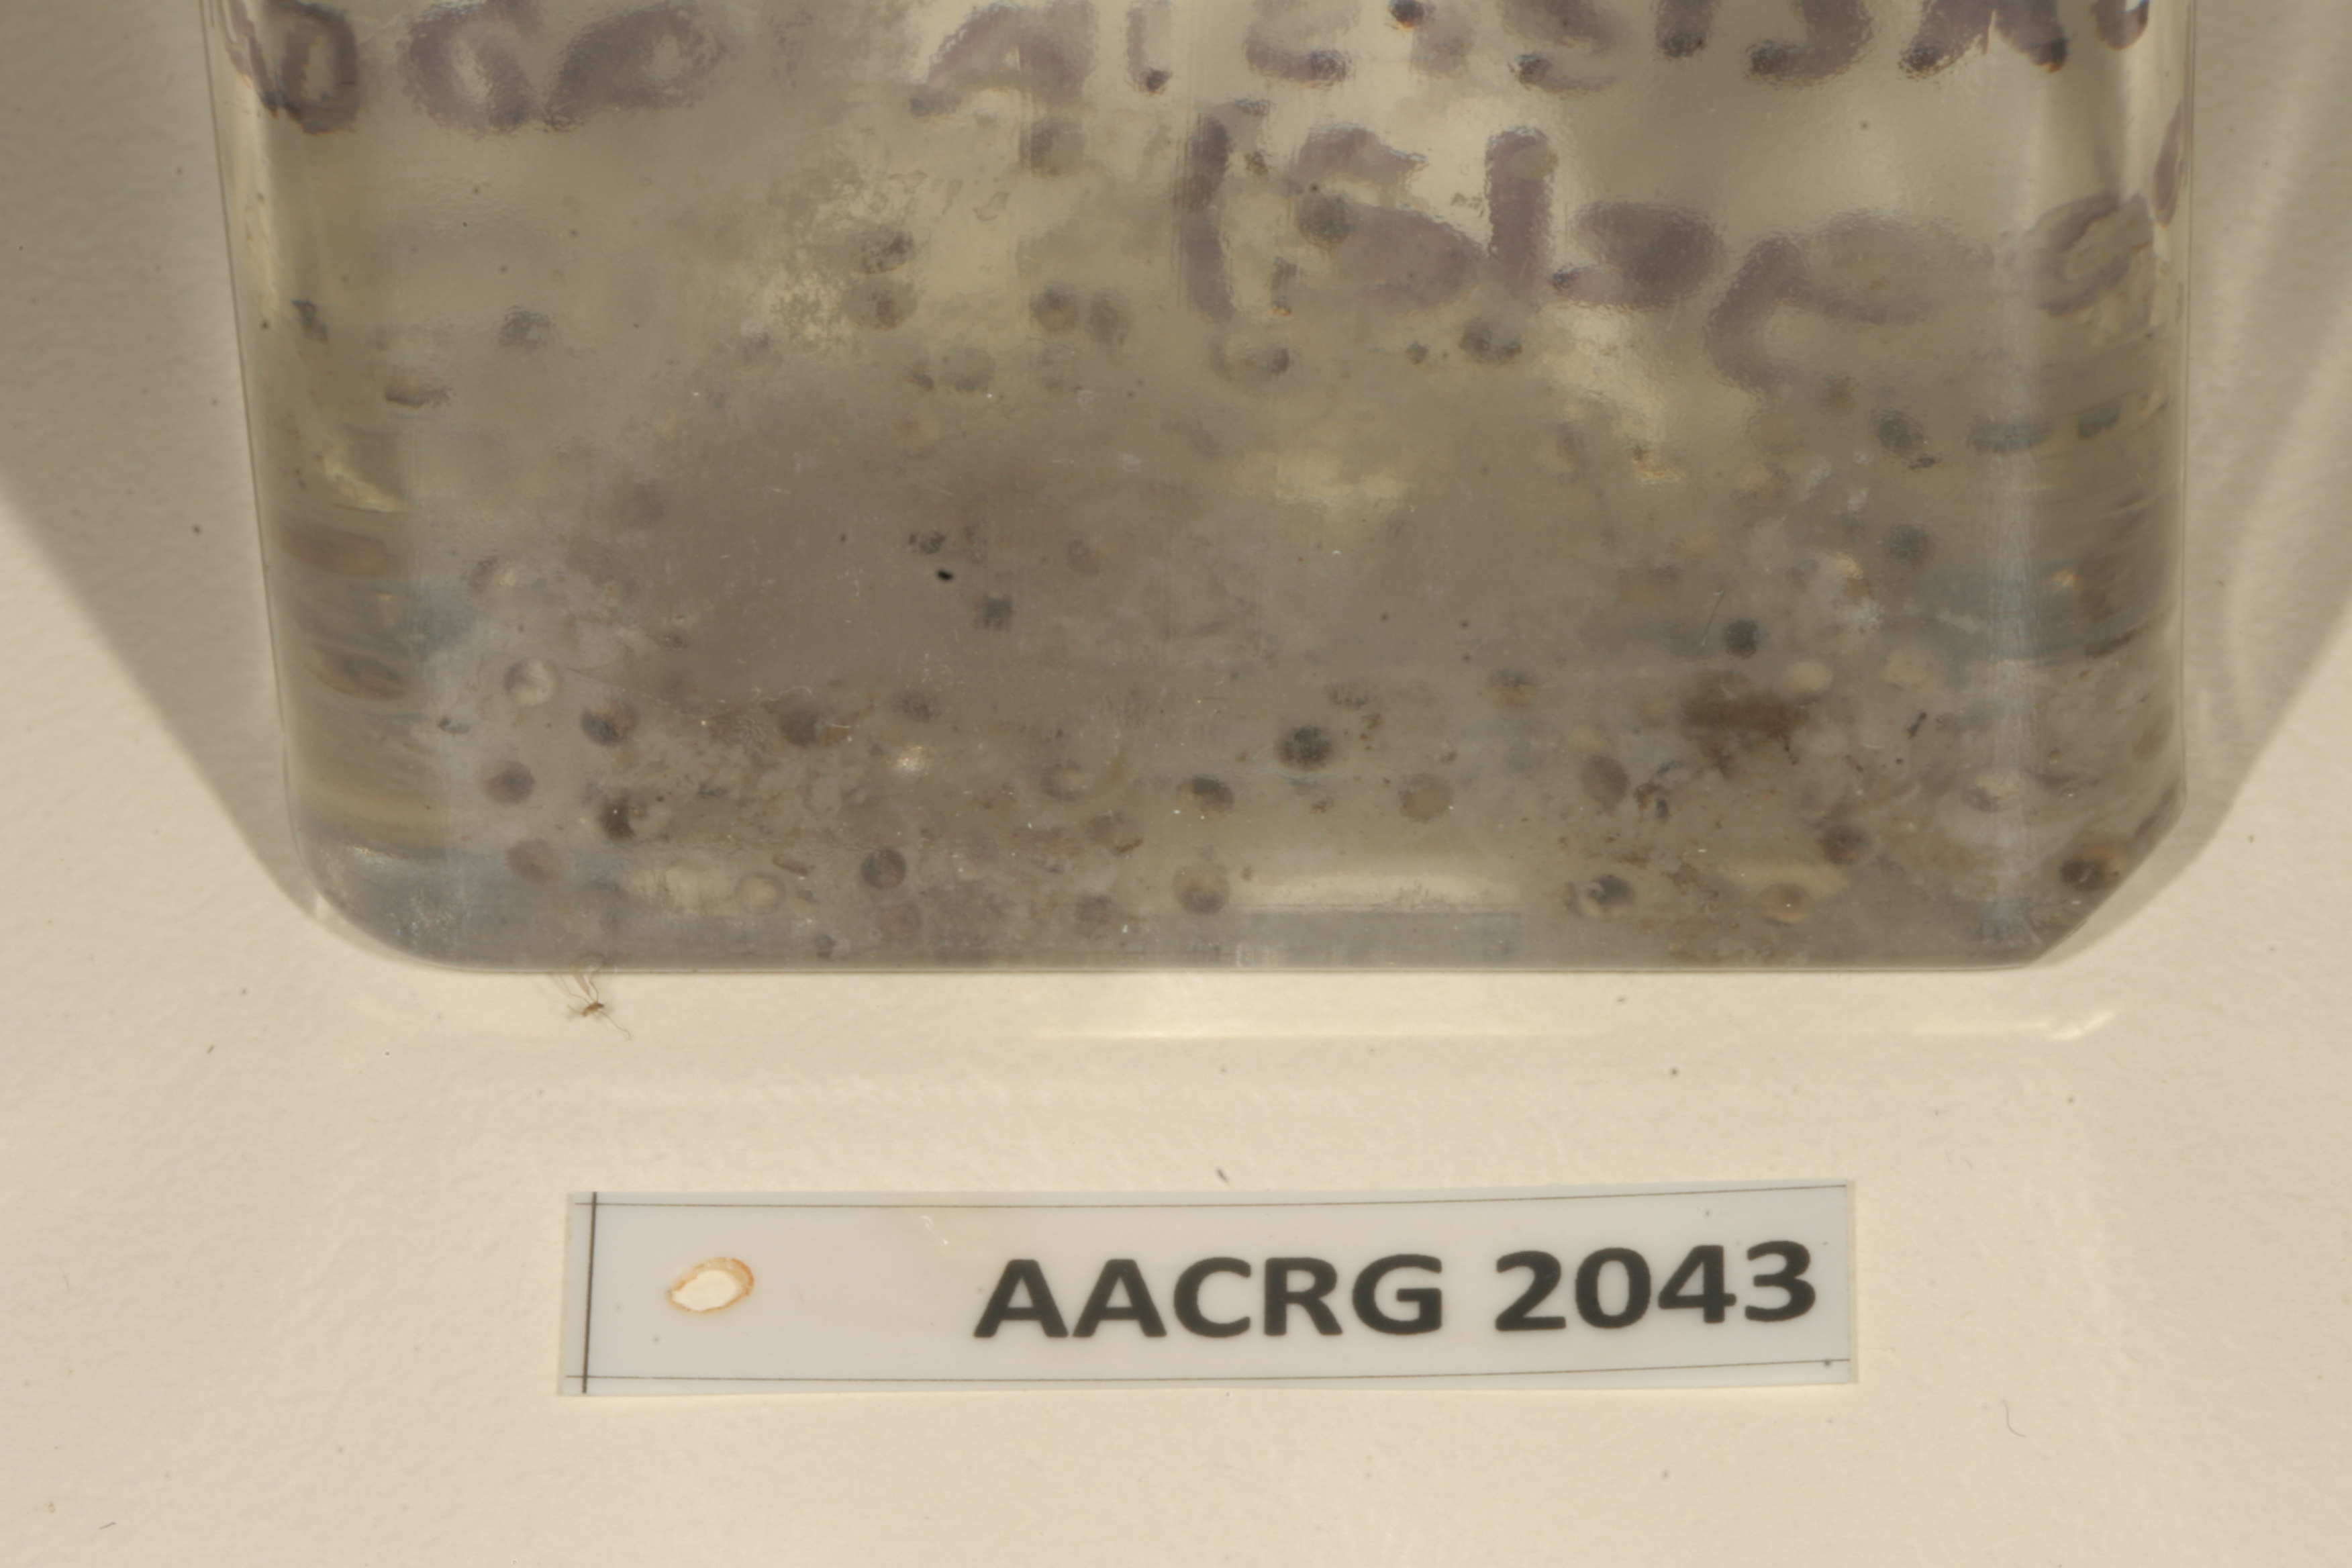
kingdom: Animalia
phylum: Chordata
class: Amphibia
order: Anura
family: Pyxicephalidae
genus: Amietia
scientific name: Amietia vertebralis
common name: Drakensberg stream frog
